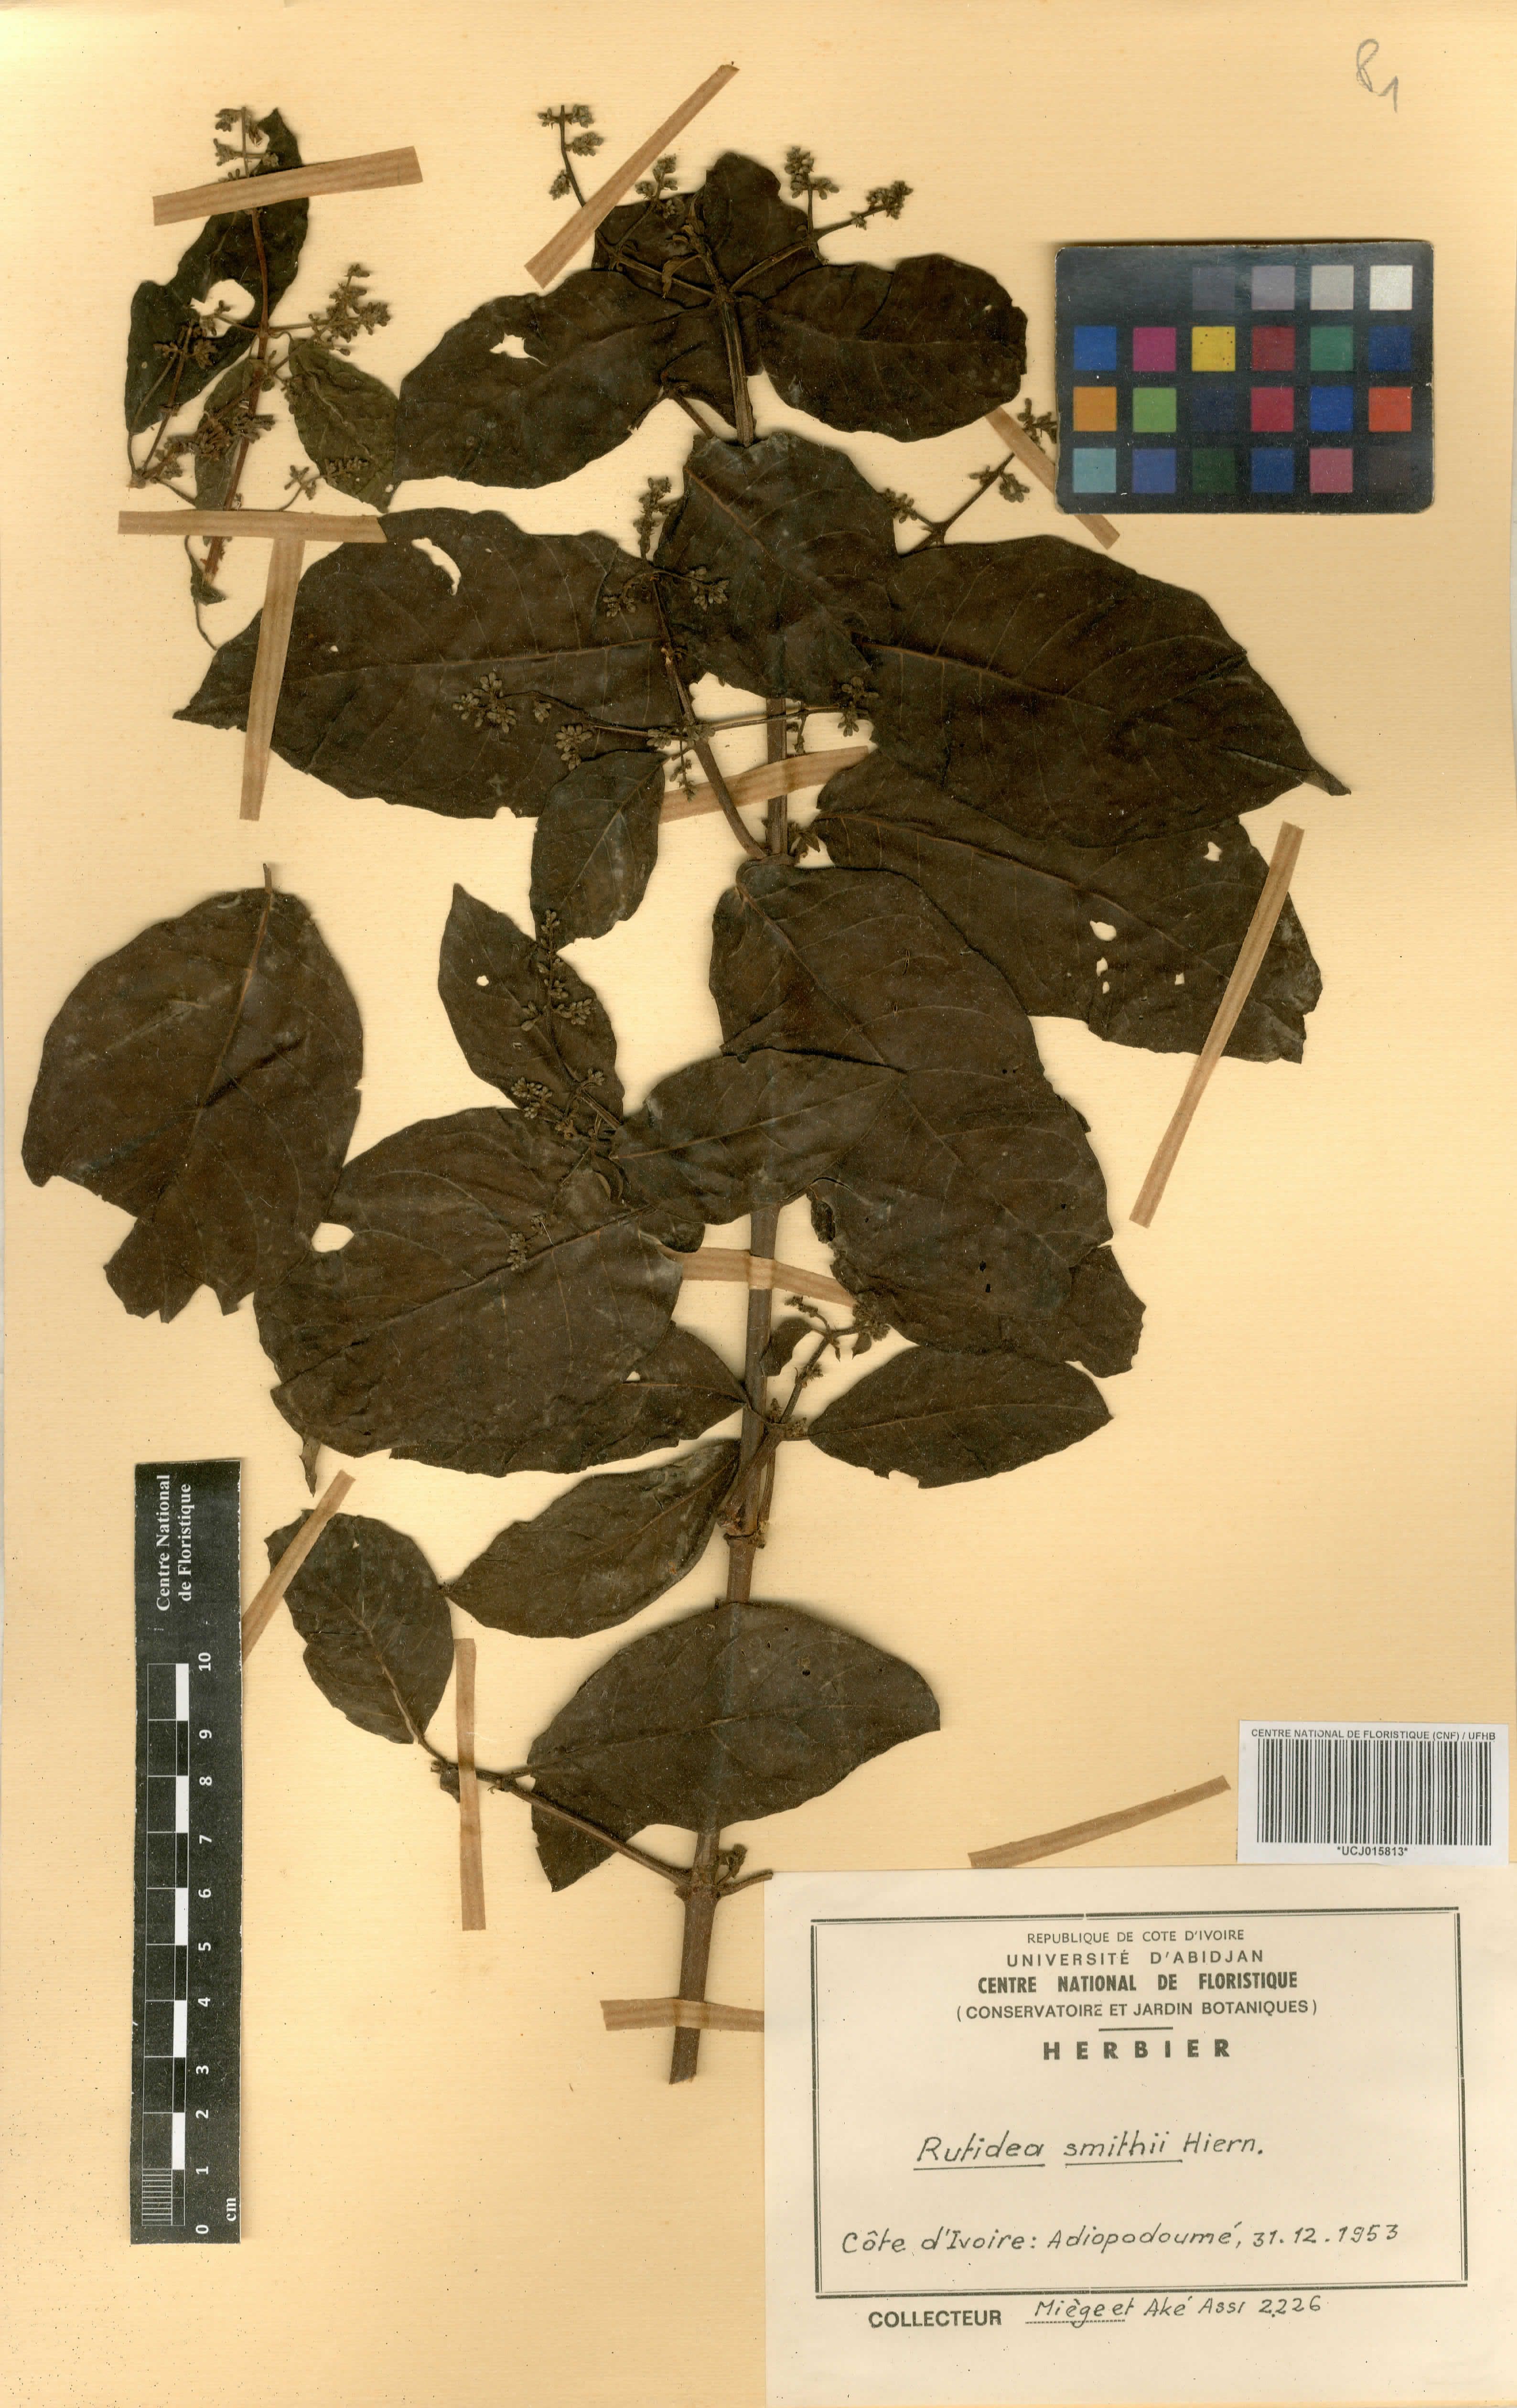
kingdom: Plantae
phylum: Tracheophyta
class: Magnoliopsida
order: Gentianales
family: Rubiaceae
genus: Rutidea
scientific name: Rutidea smithii
